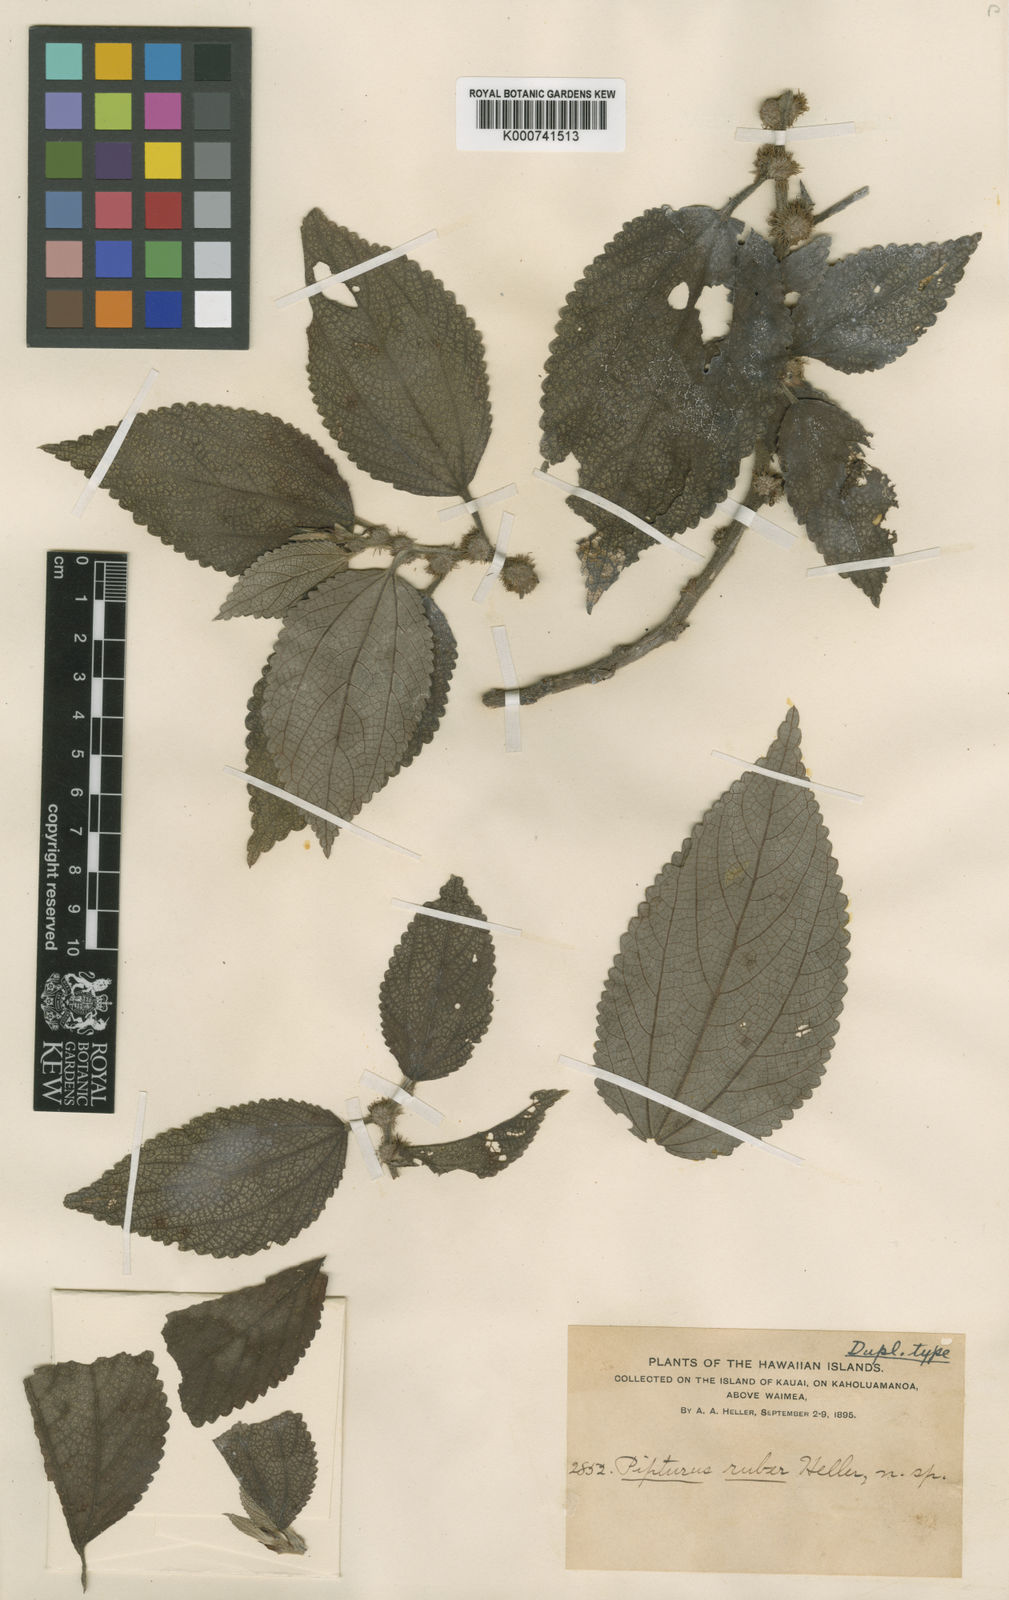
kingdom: Plantae
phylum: Tracheophyta
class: Magnoliopsida
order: Rosales
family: Urticaceae
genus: Pipturus
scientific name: Pipturus ruber
